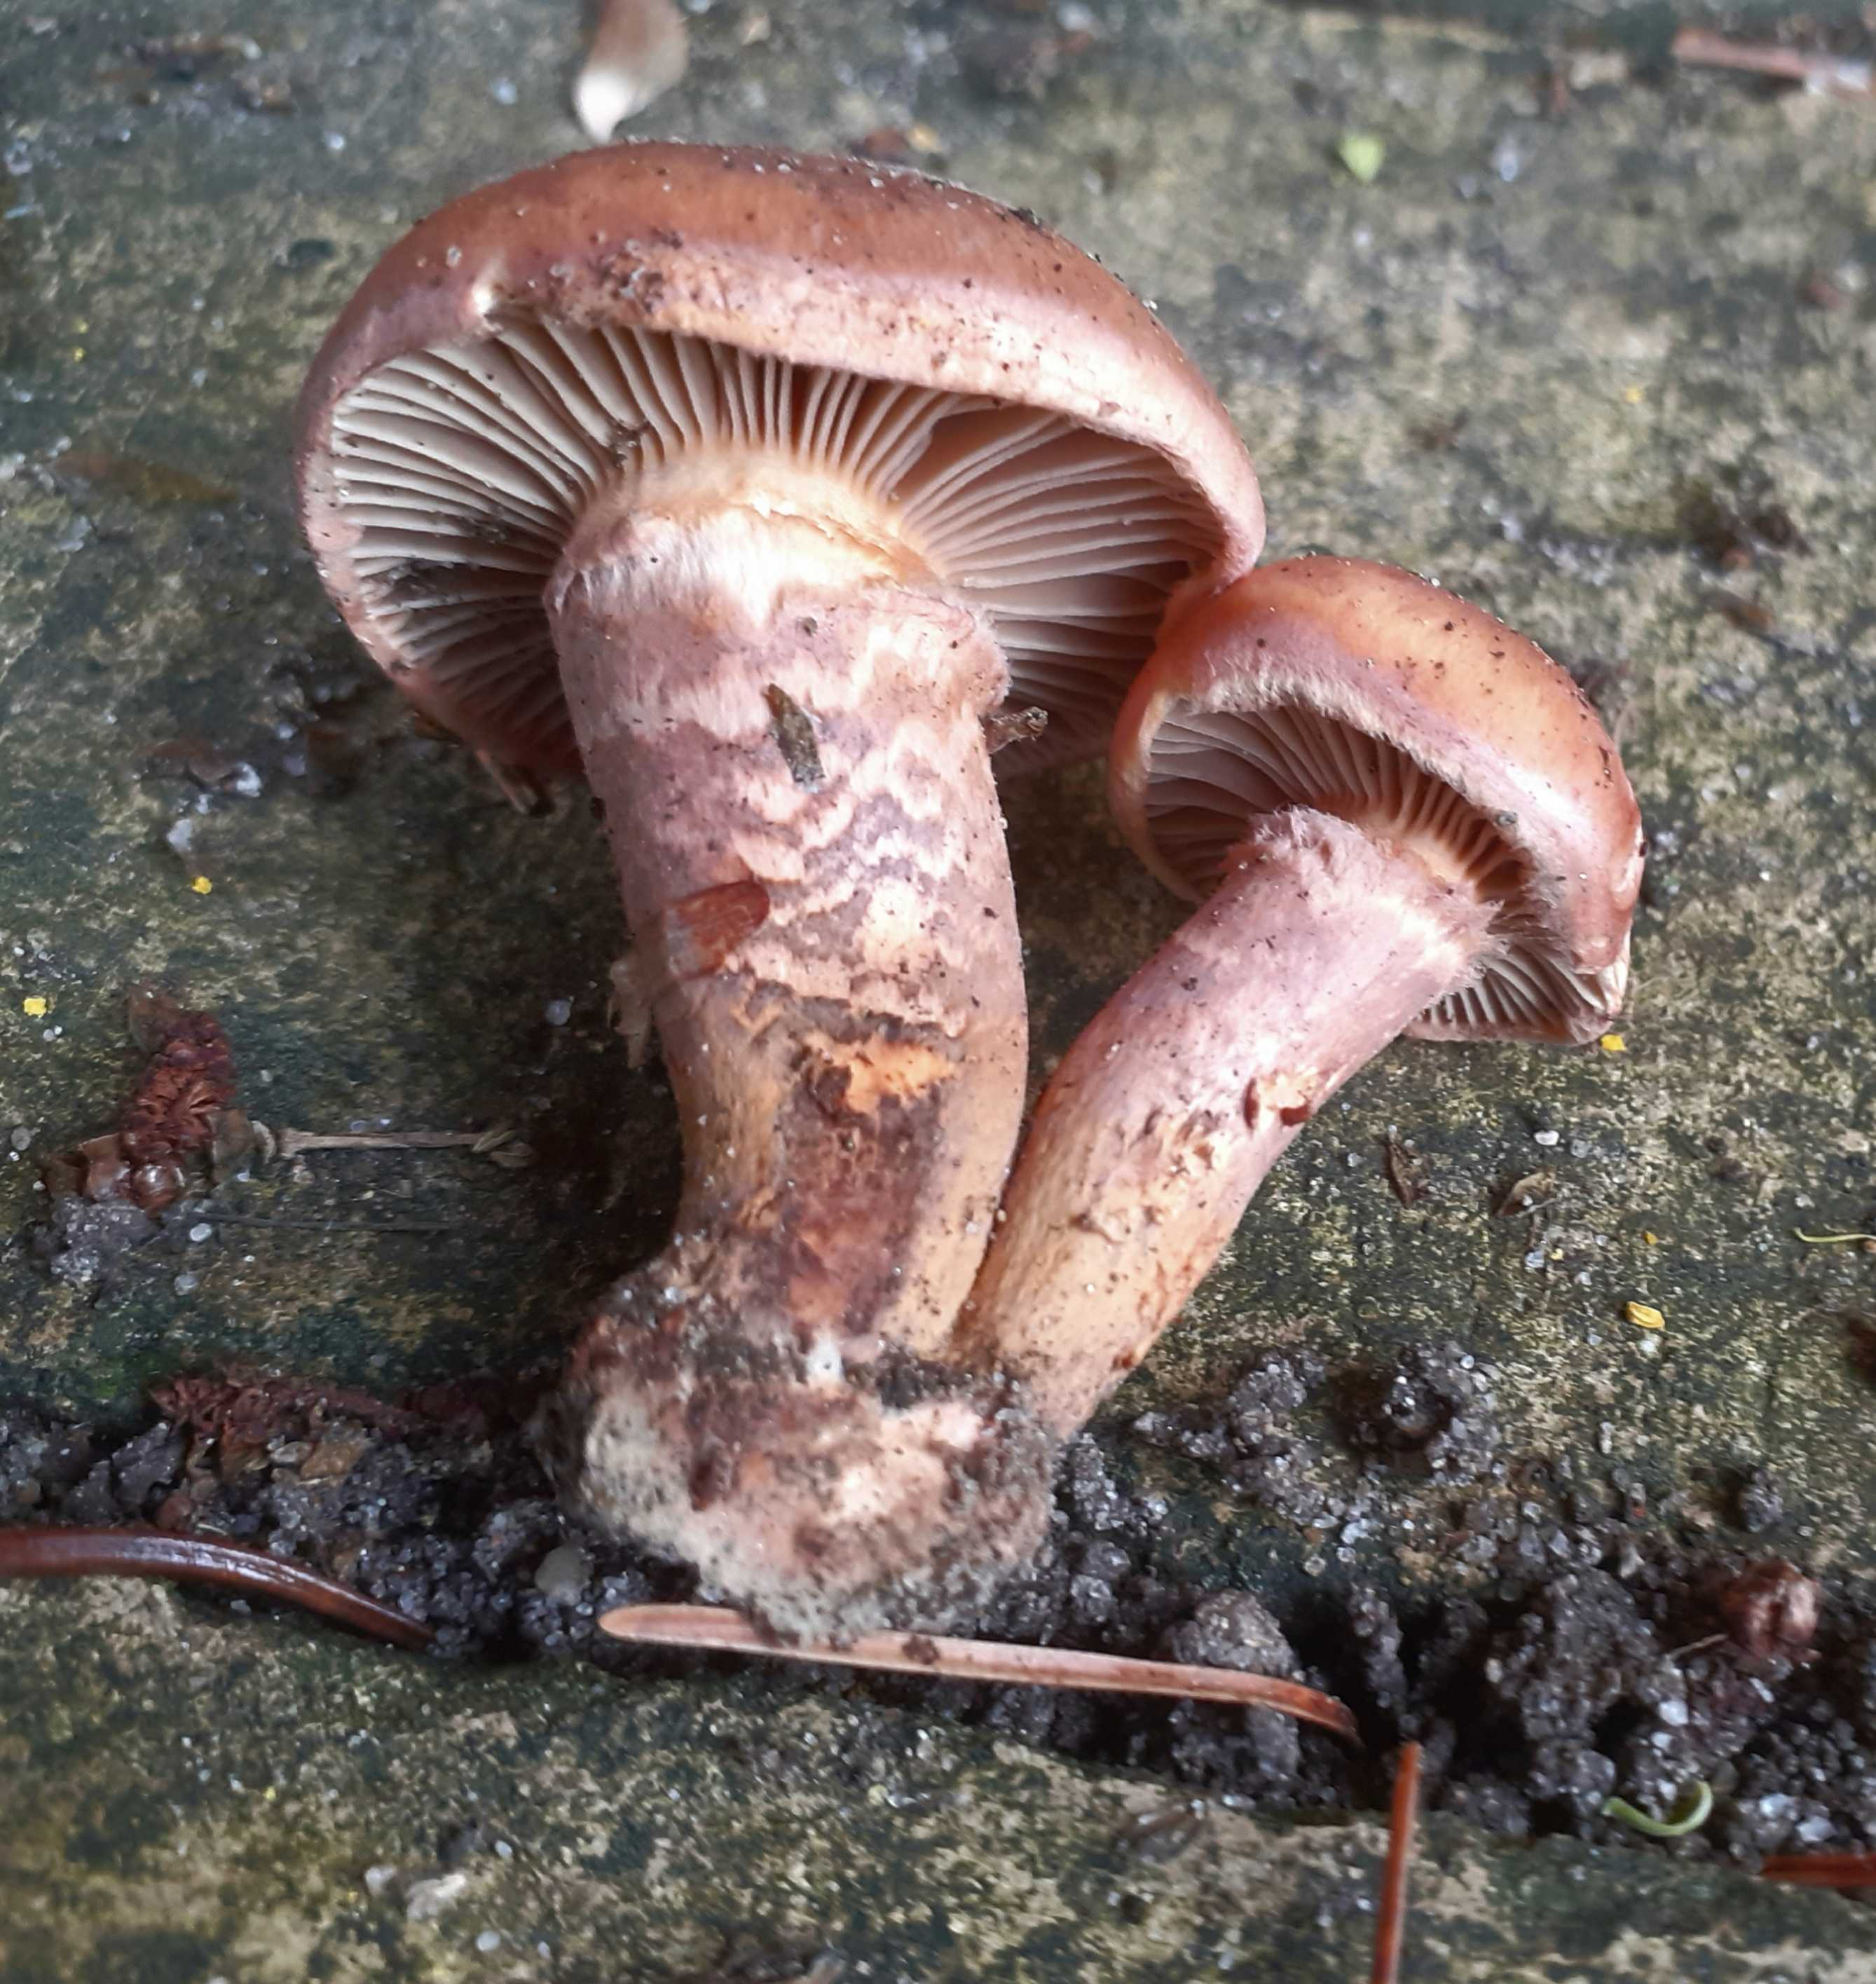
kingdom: Fungi
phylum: Basidiomycota
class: Agaricomycetes
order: Boletales
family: Gomphidiaceae
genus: Chroogomphus
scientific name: Chroogomphus rutilus
